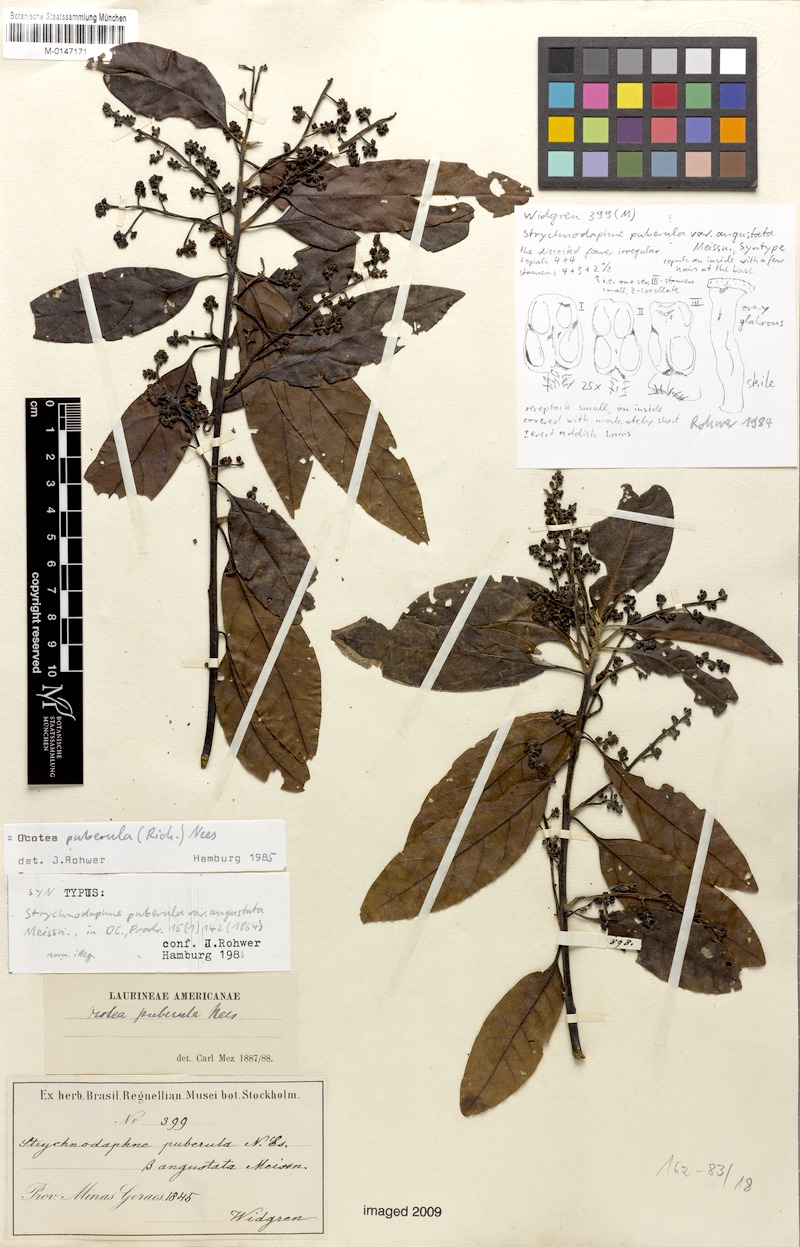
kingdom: Plantae
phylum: Tracheophyta
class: Magnoliopsida
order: Laurales
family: Lauraceae
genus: Ocotea
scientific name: Ocotea puberula
